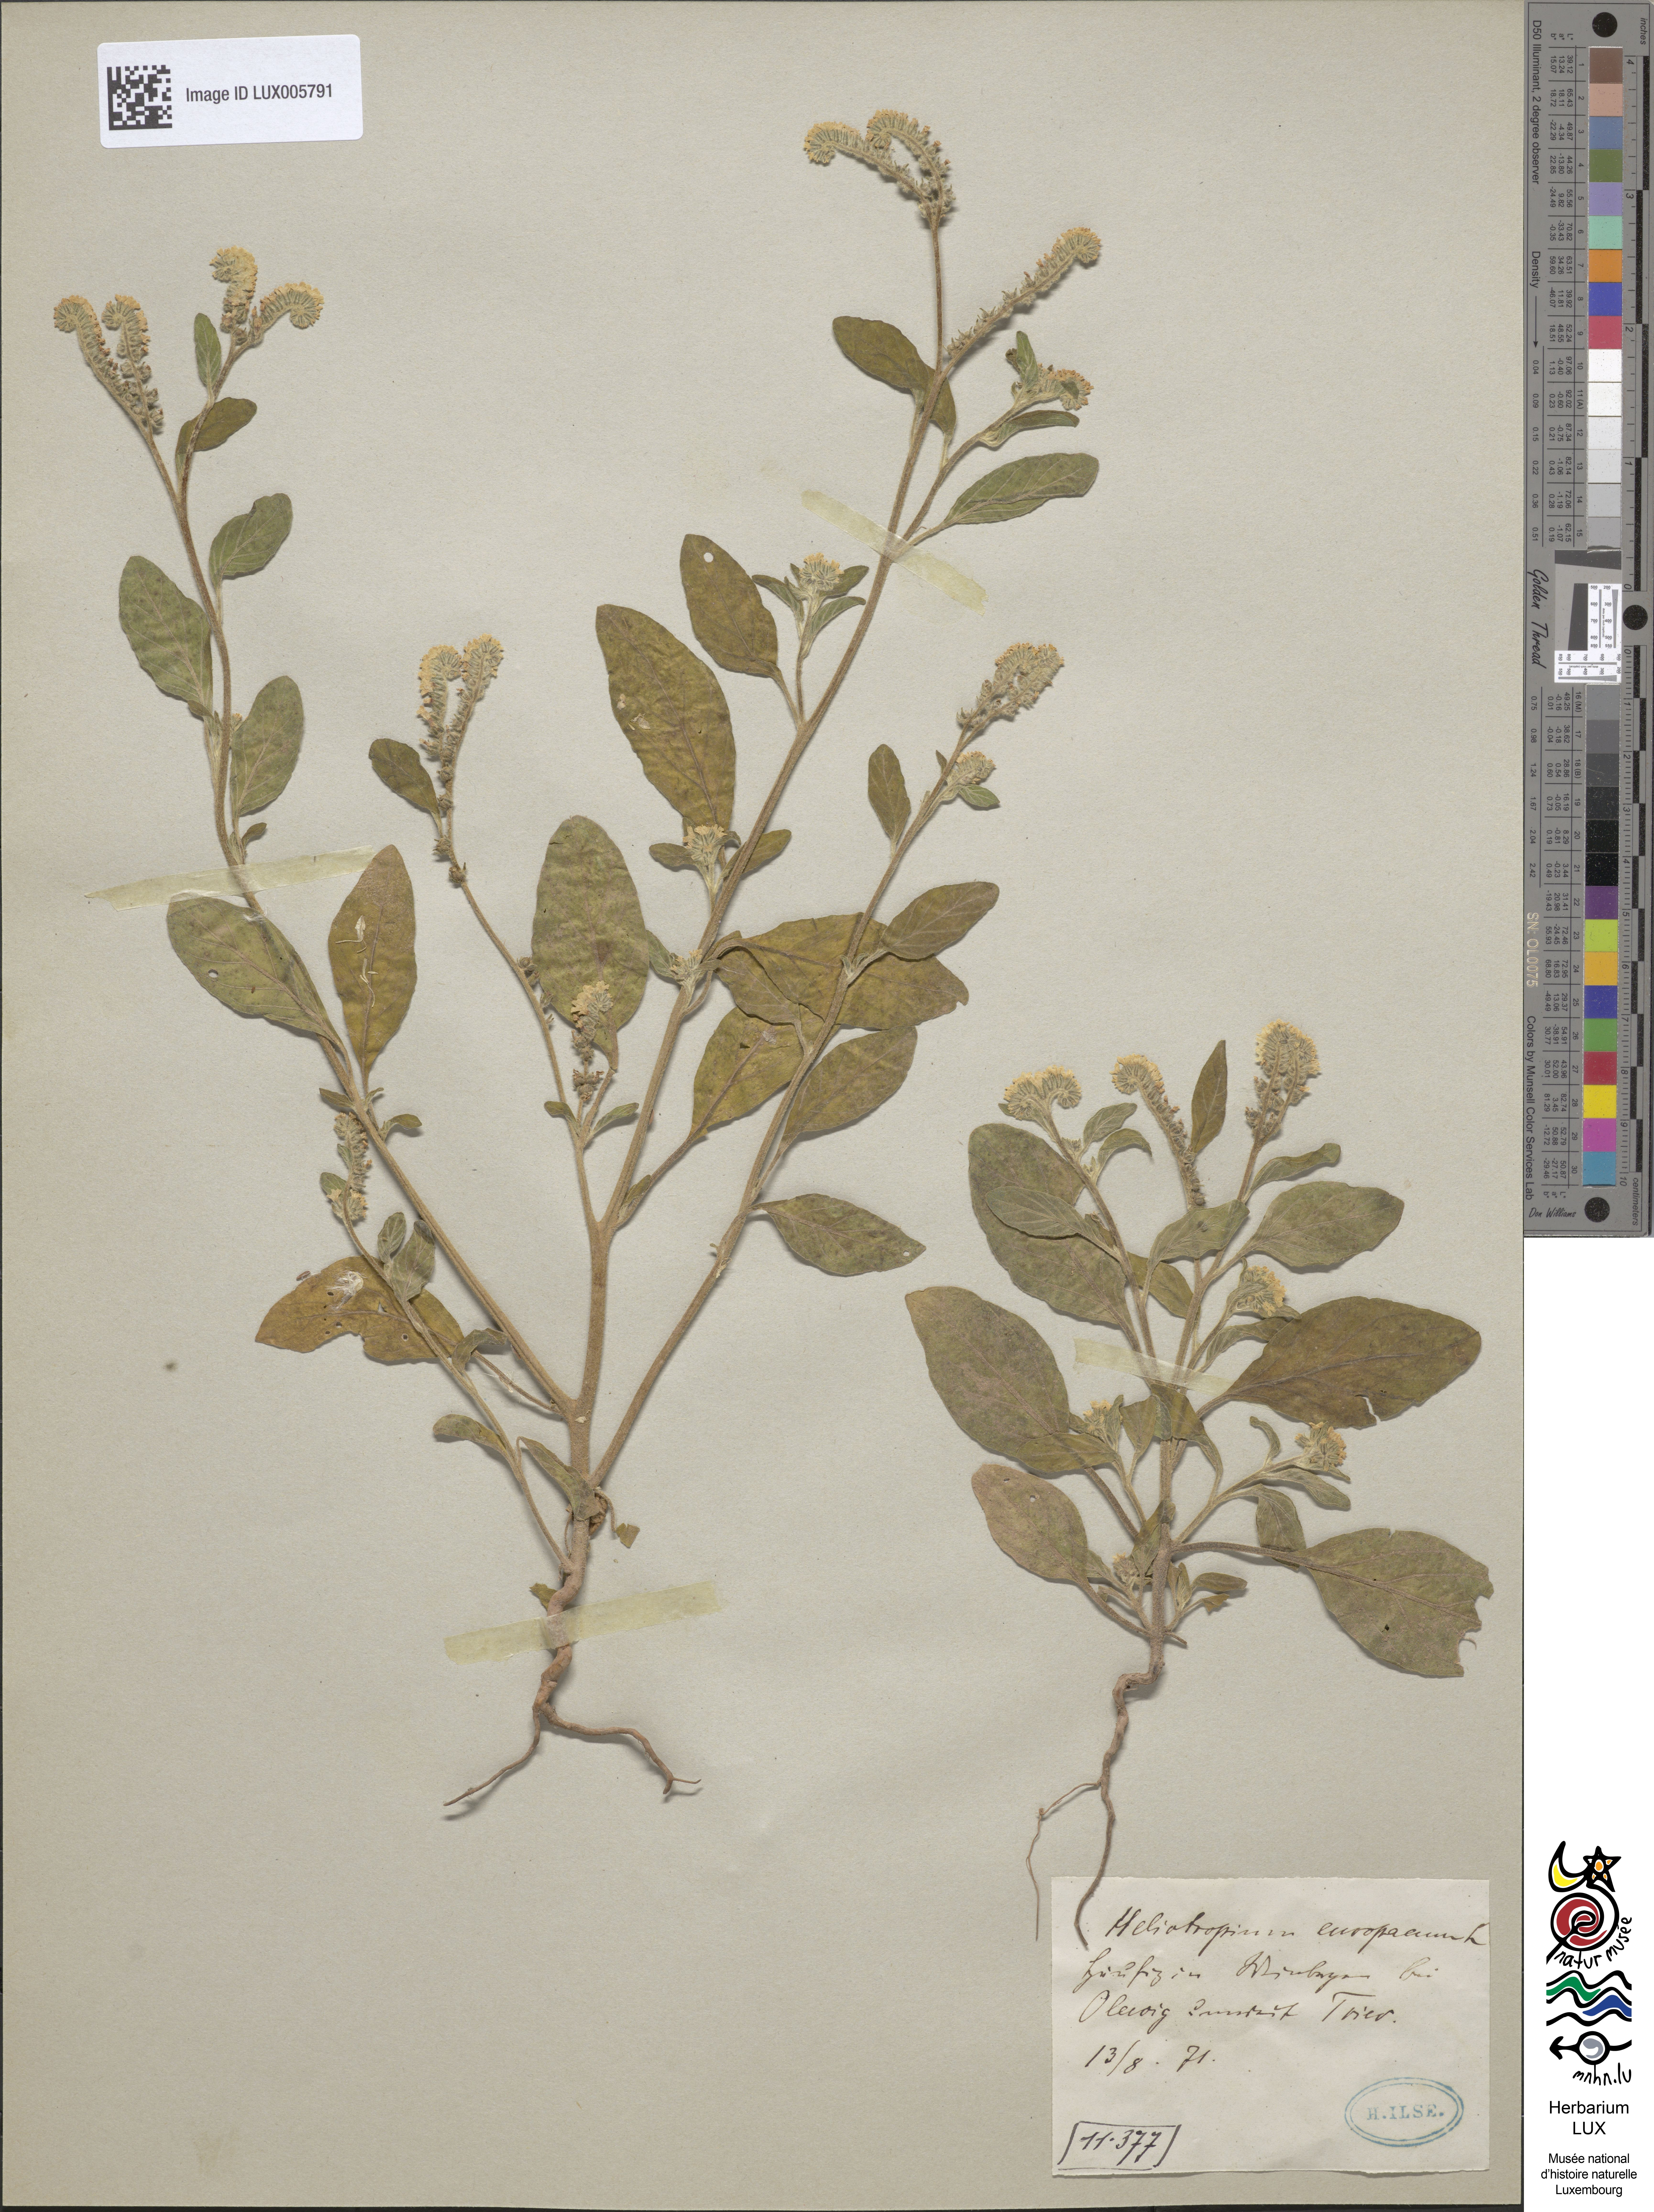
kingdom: Plantae
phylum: Tracheophyta
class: Magnoliopsida
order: Boraginales
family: Heliotropiaceae
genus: Heliotropium
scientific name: Heliotropium europaeum
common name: European heliotrope
